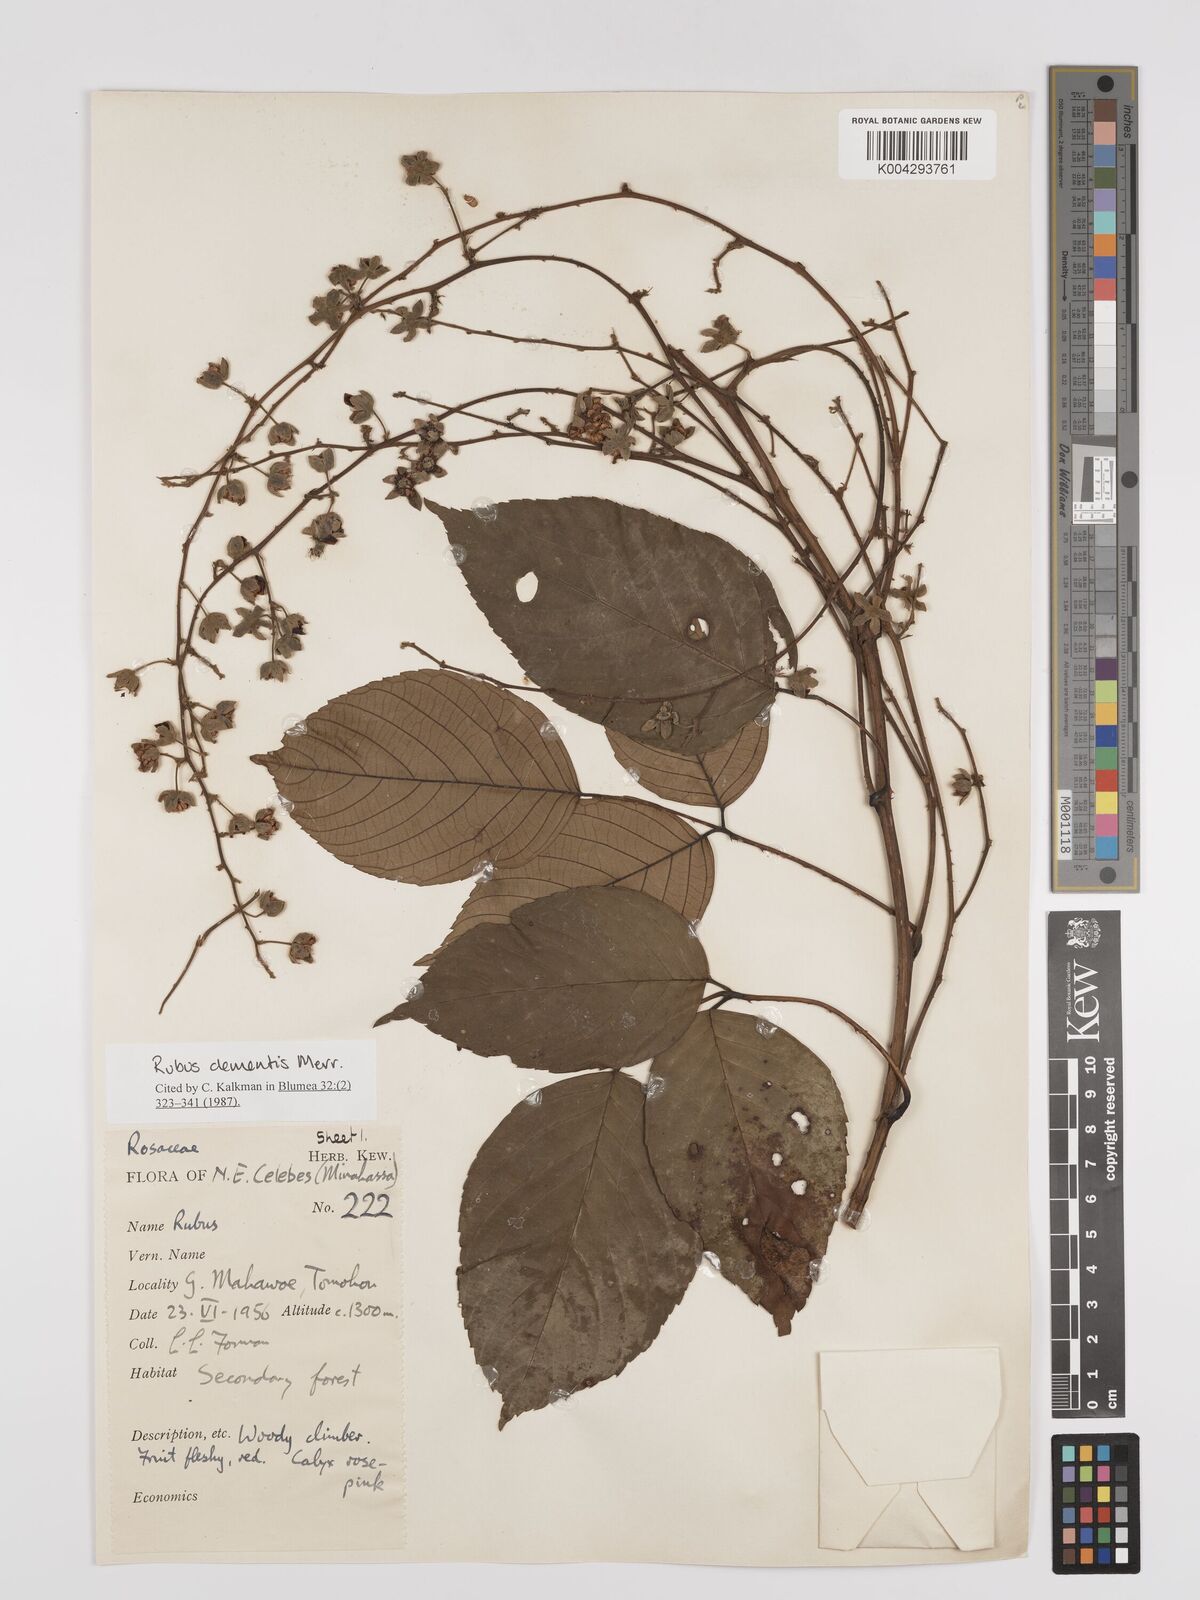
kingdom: Plantae
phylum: Tracheophyta
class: Magnoliopsida
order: Rosales
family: Rosaceae
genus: Rubus
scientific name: Rubus clementis
